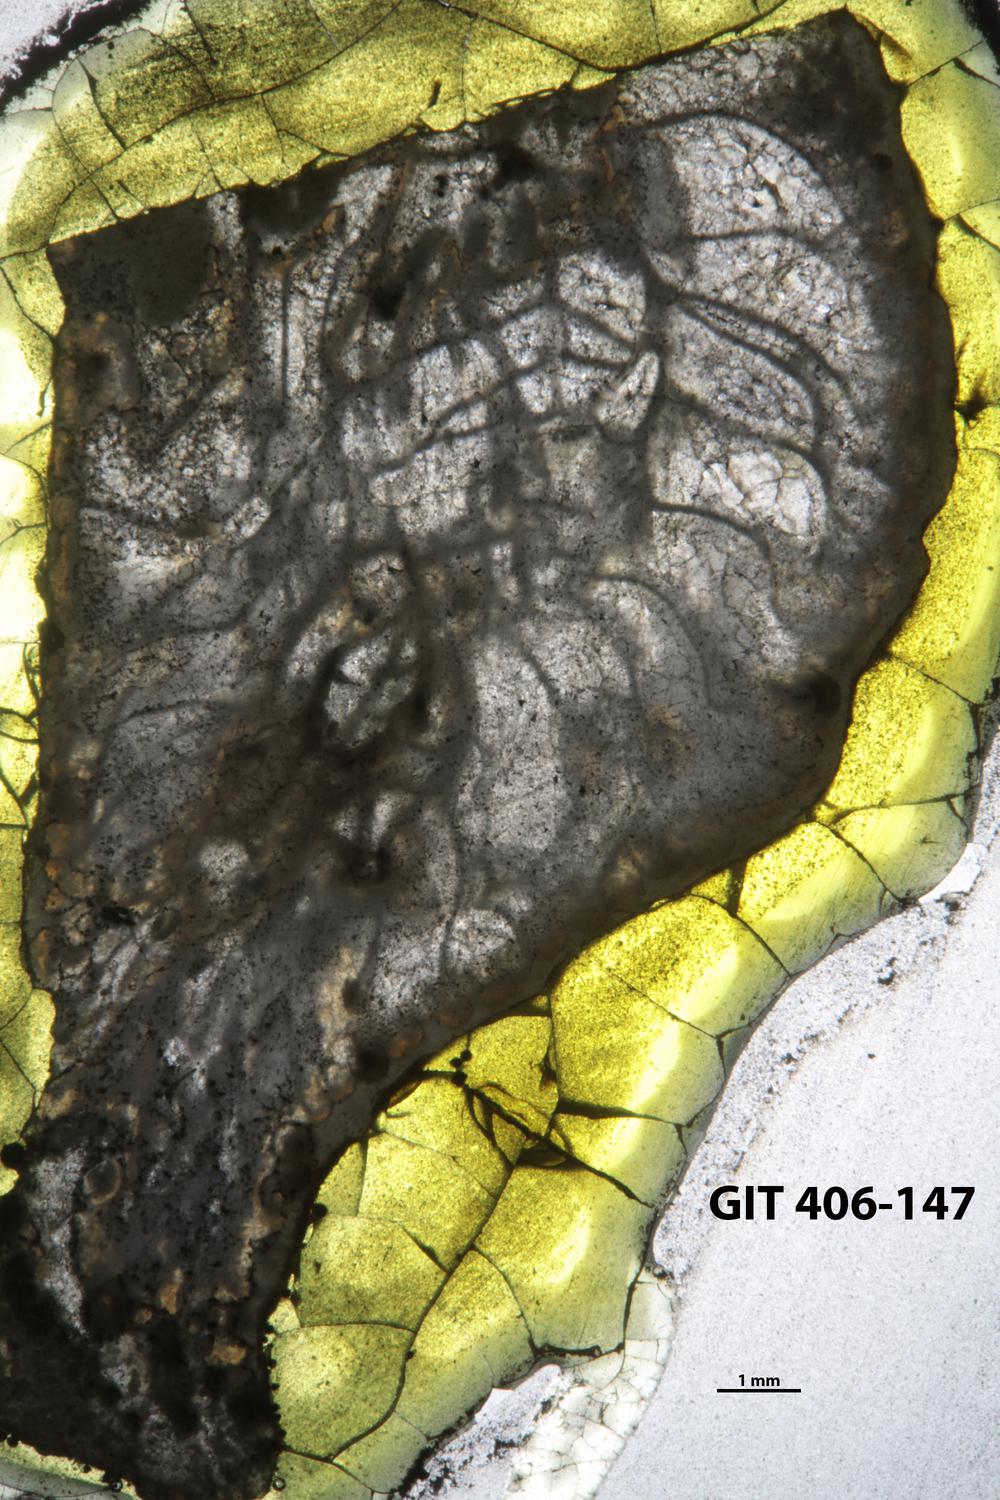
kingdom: Animalia
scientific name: Animalia
